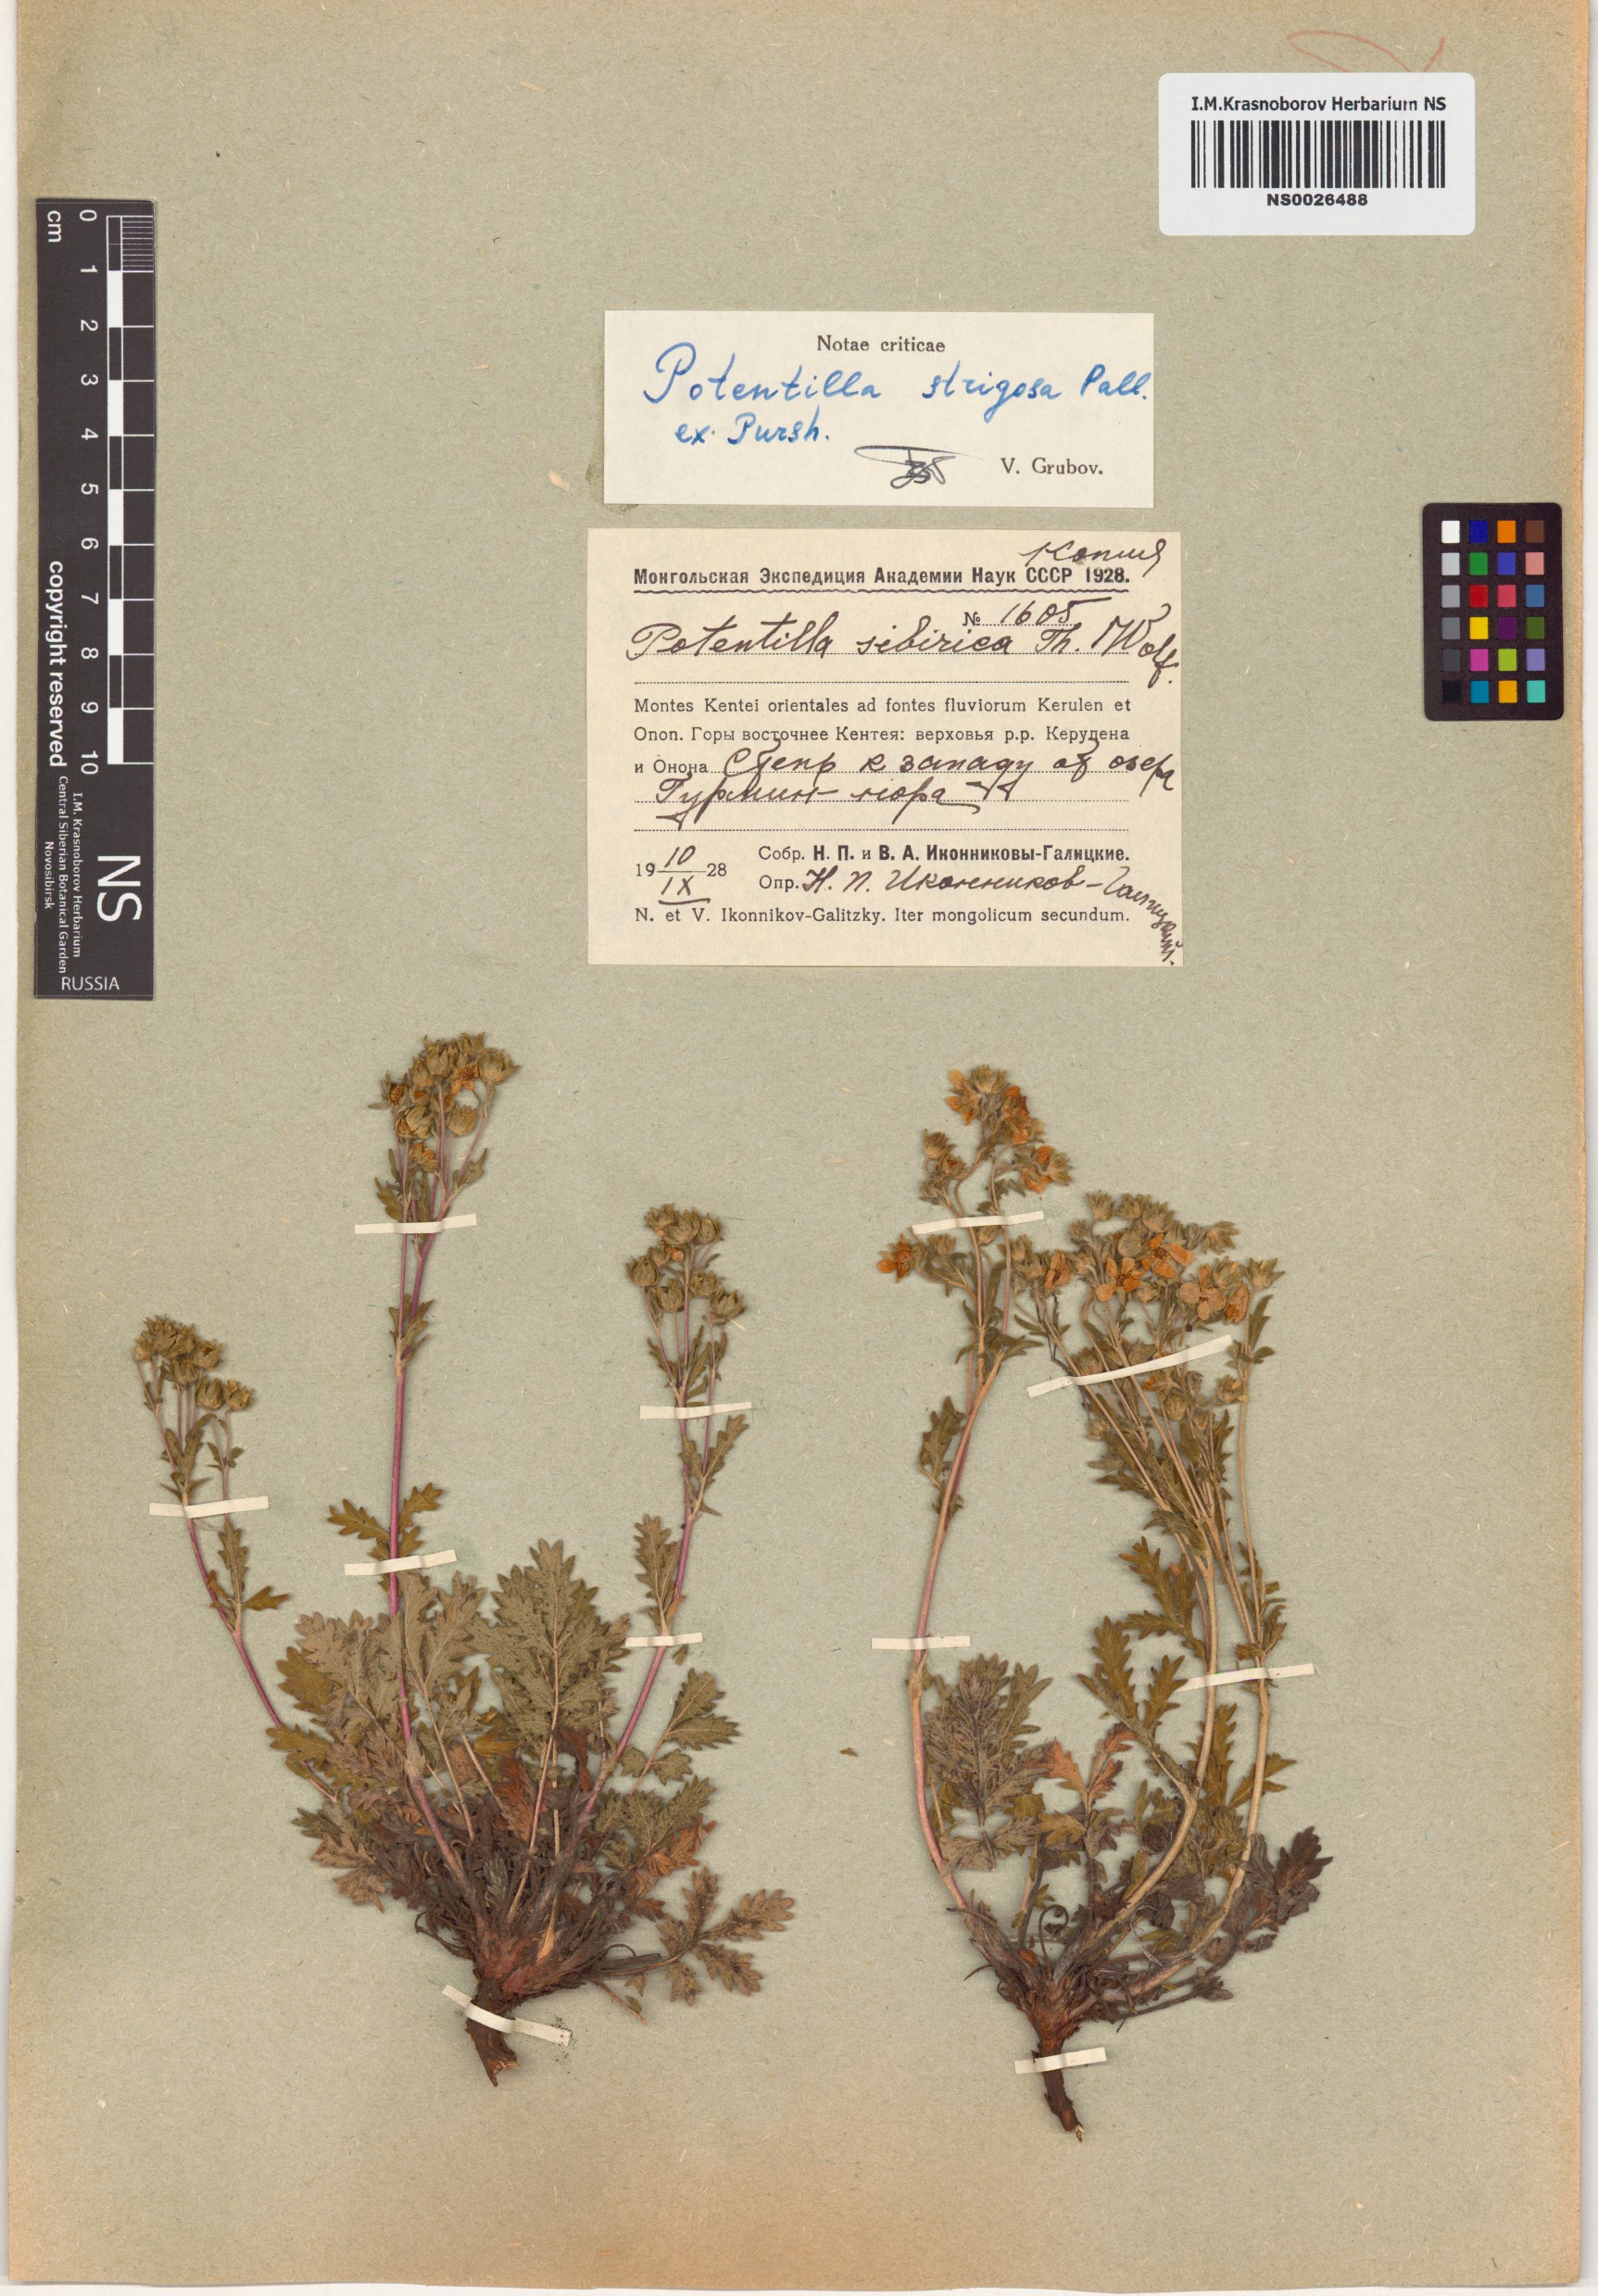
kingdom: Plantae
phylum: Tracheophyta
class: Magnoliopsida
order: Rosales
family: Rosaceae
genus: Potentilla
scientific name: Potentilla pensylvanica
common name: Pennsylvania cinquefoil
